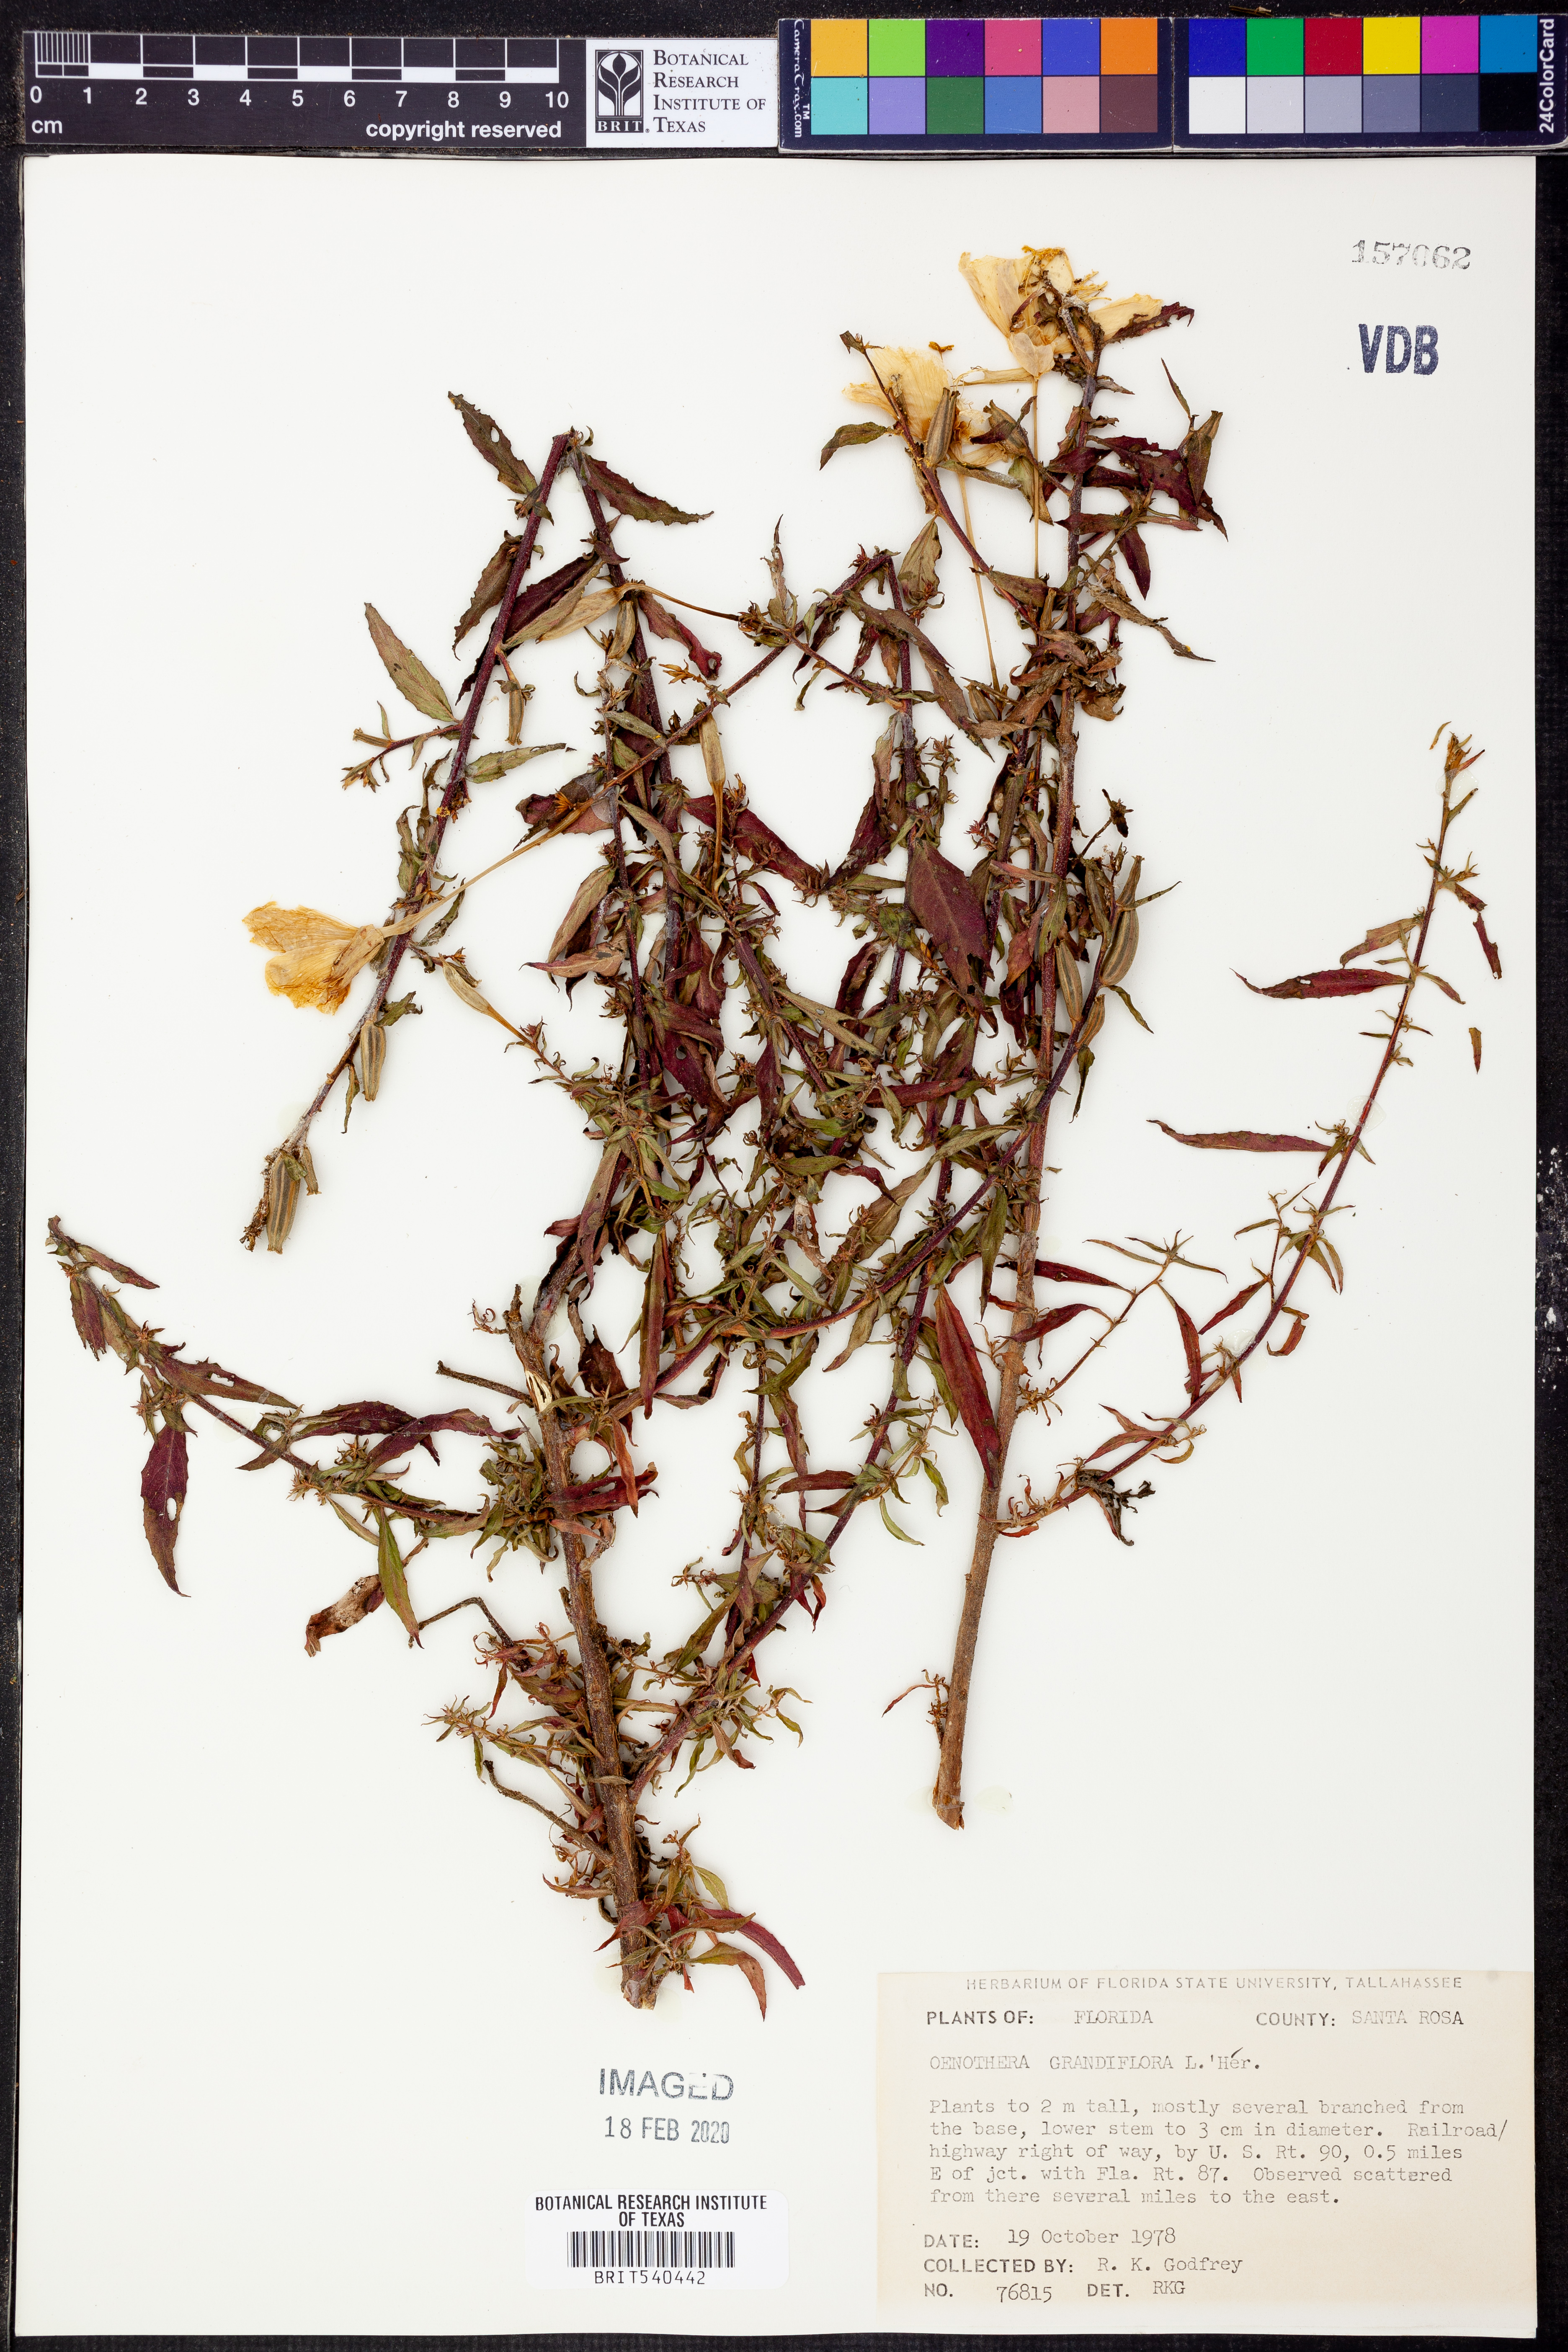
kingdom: Plantae
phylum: Tracheophyta
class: Magnoliopsida
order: Myrtales
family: Onagraceae
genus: Oenothera
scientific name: Oenothera grandiflora
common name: Large-flowered evening-primrose
